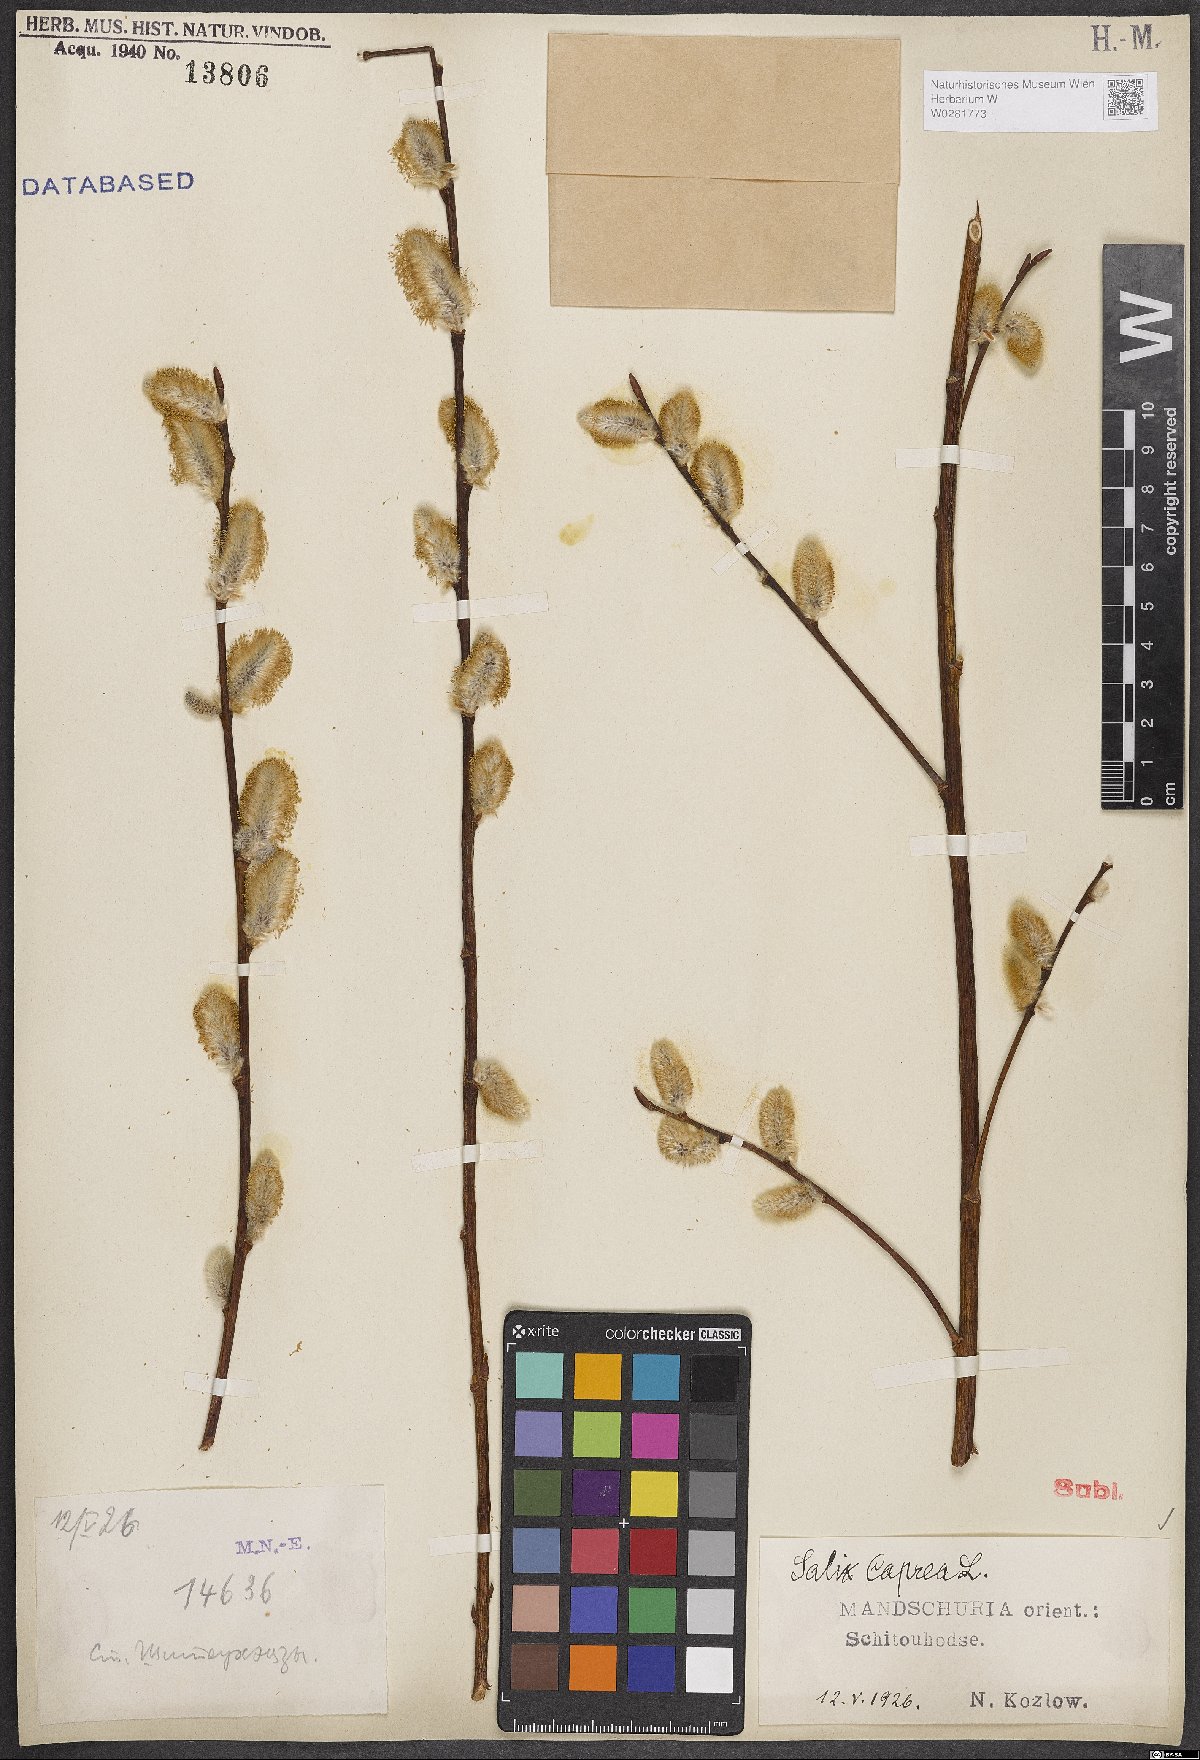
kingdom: Plantae
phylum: Tracheophyta
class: Magnoliopsida
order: Malpighiales
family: Salicaceae
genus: Salix
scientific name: Salix caprea
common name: Goat willow
